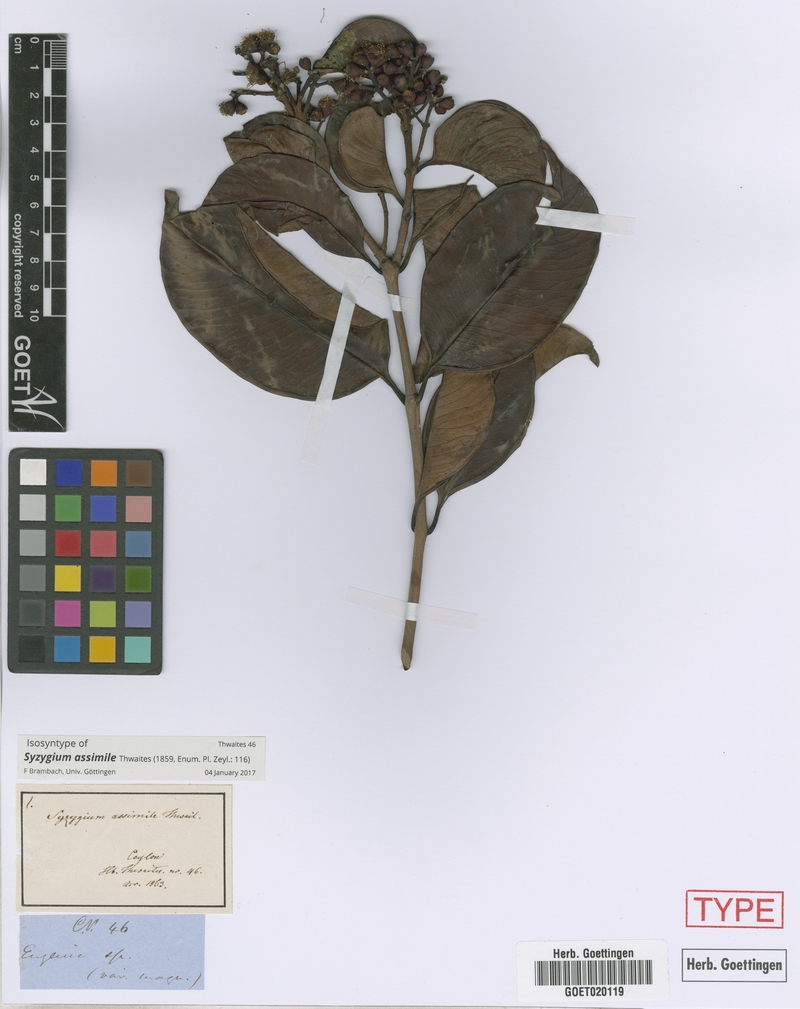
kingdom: Plantae
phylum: Tracheophyta
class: Magnoliopsida
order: Myrtales
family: Myrtaceae
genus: Syzygium
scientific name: Syzygium assimile
